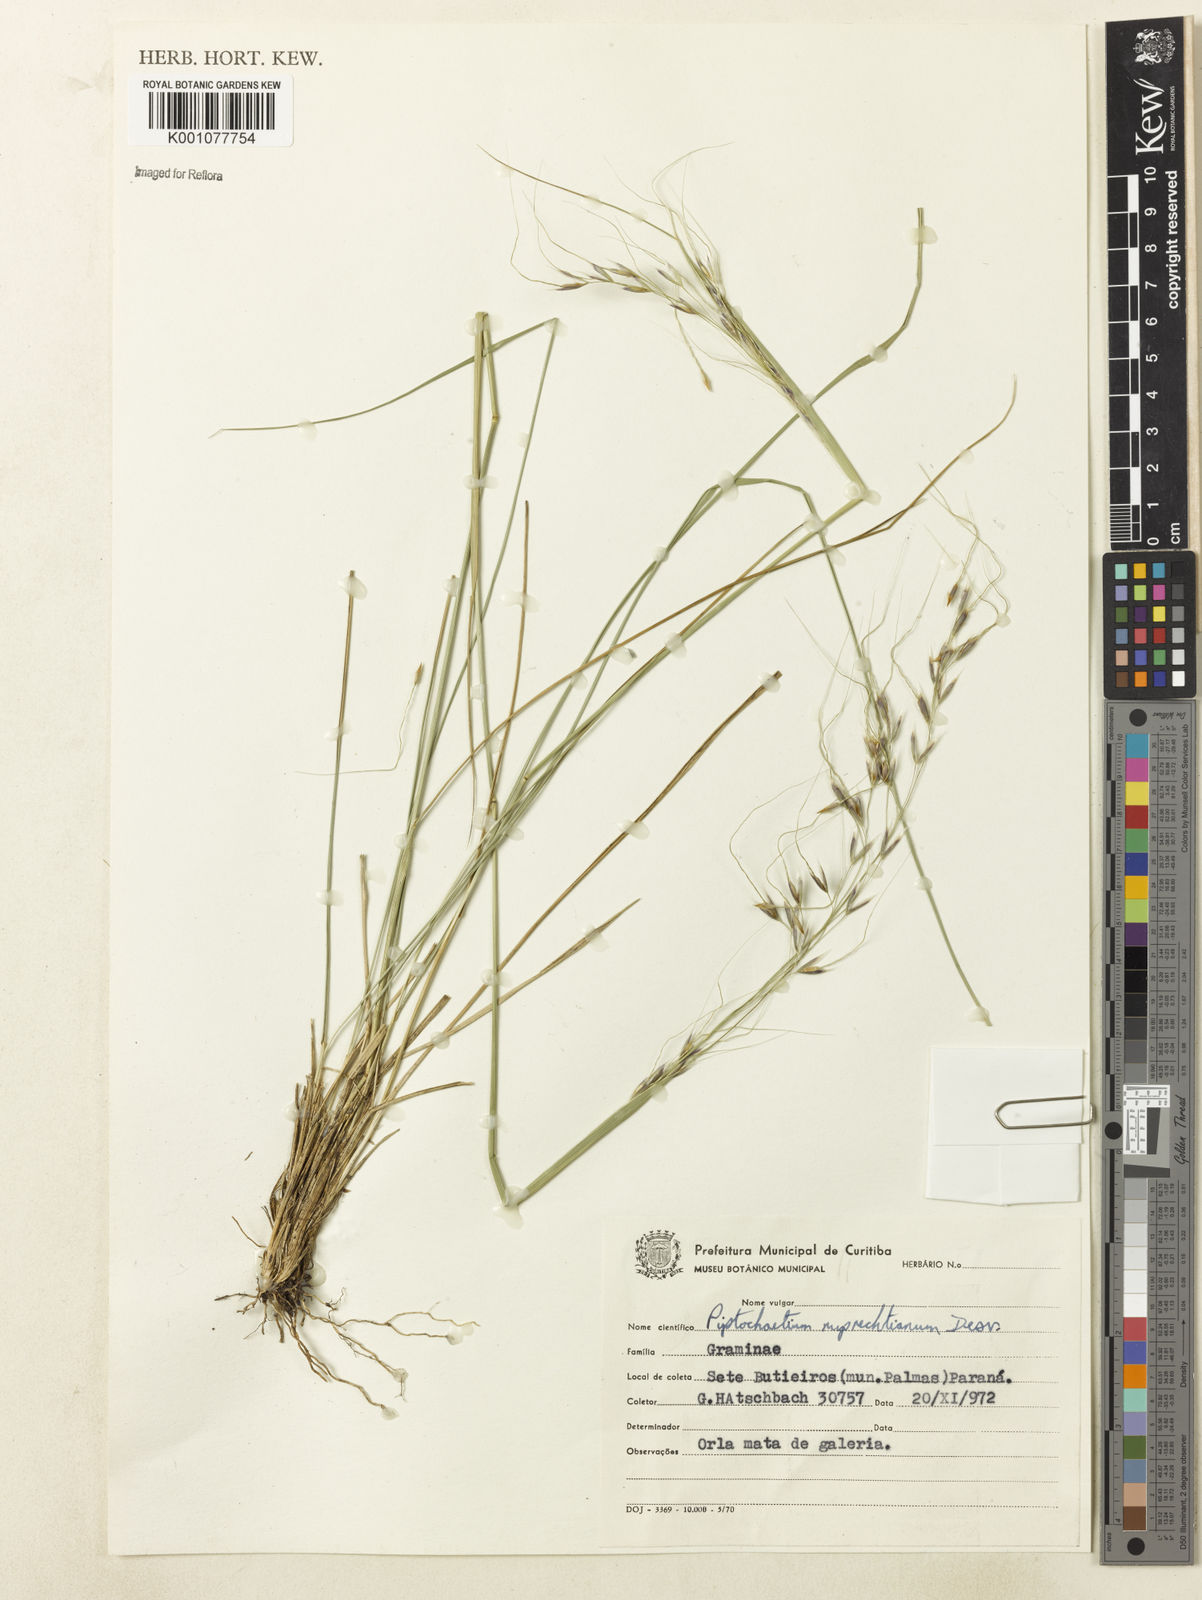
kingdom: Plantae
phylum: Tracheophyta
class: Liliopsida
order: Poales
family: Poaceae
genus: Piptochaetium
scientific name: Piptochaetium ruprechtianum
